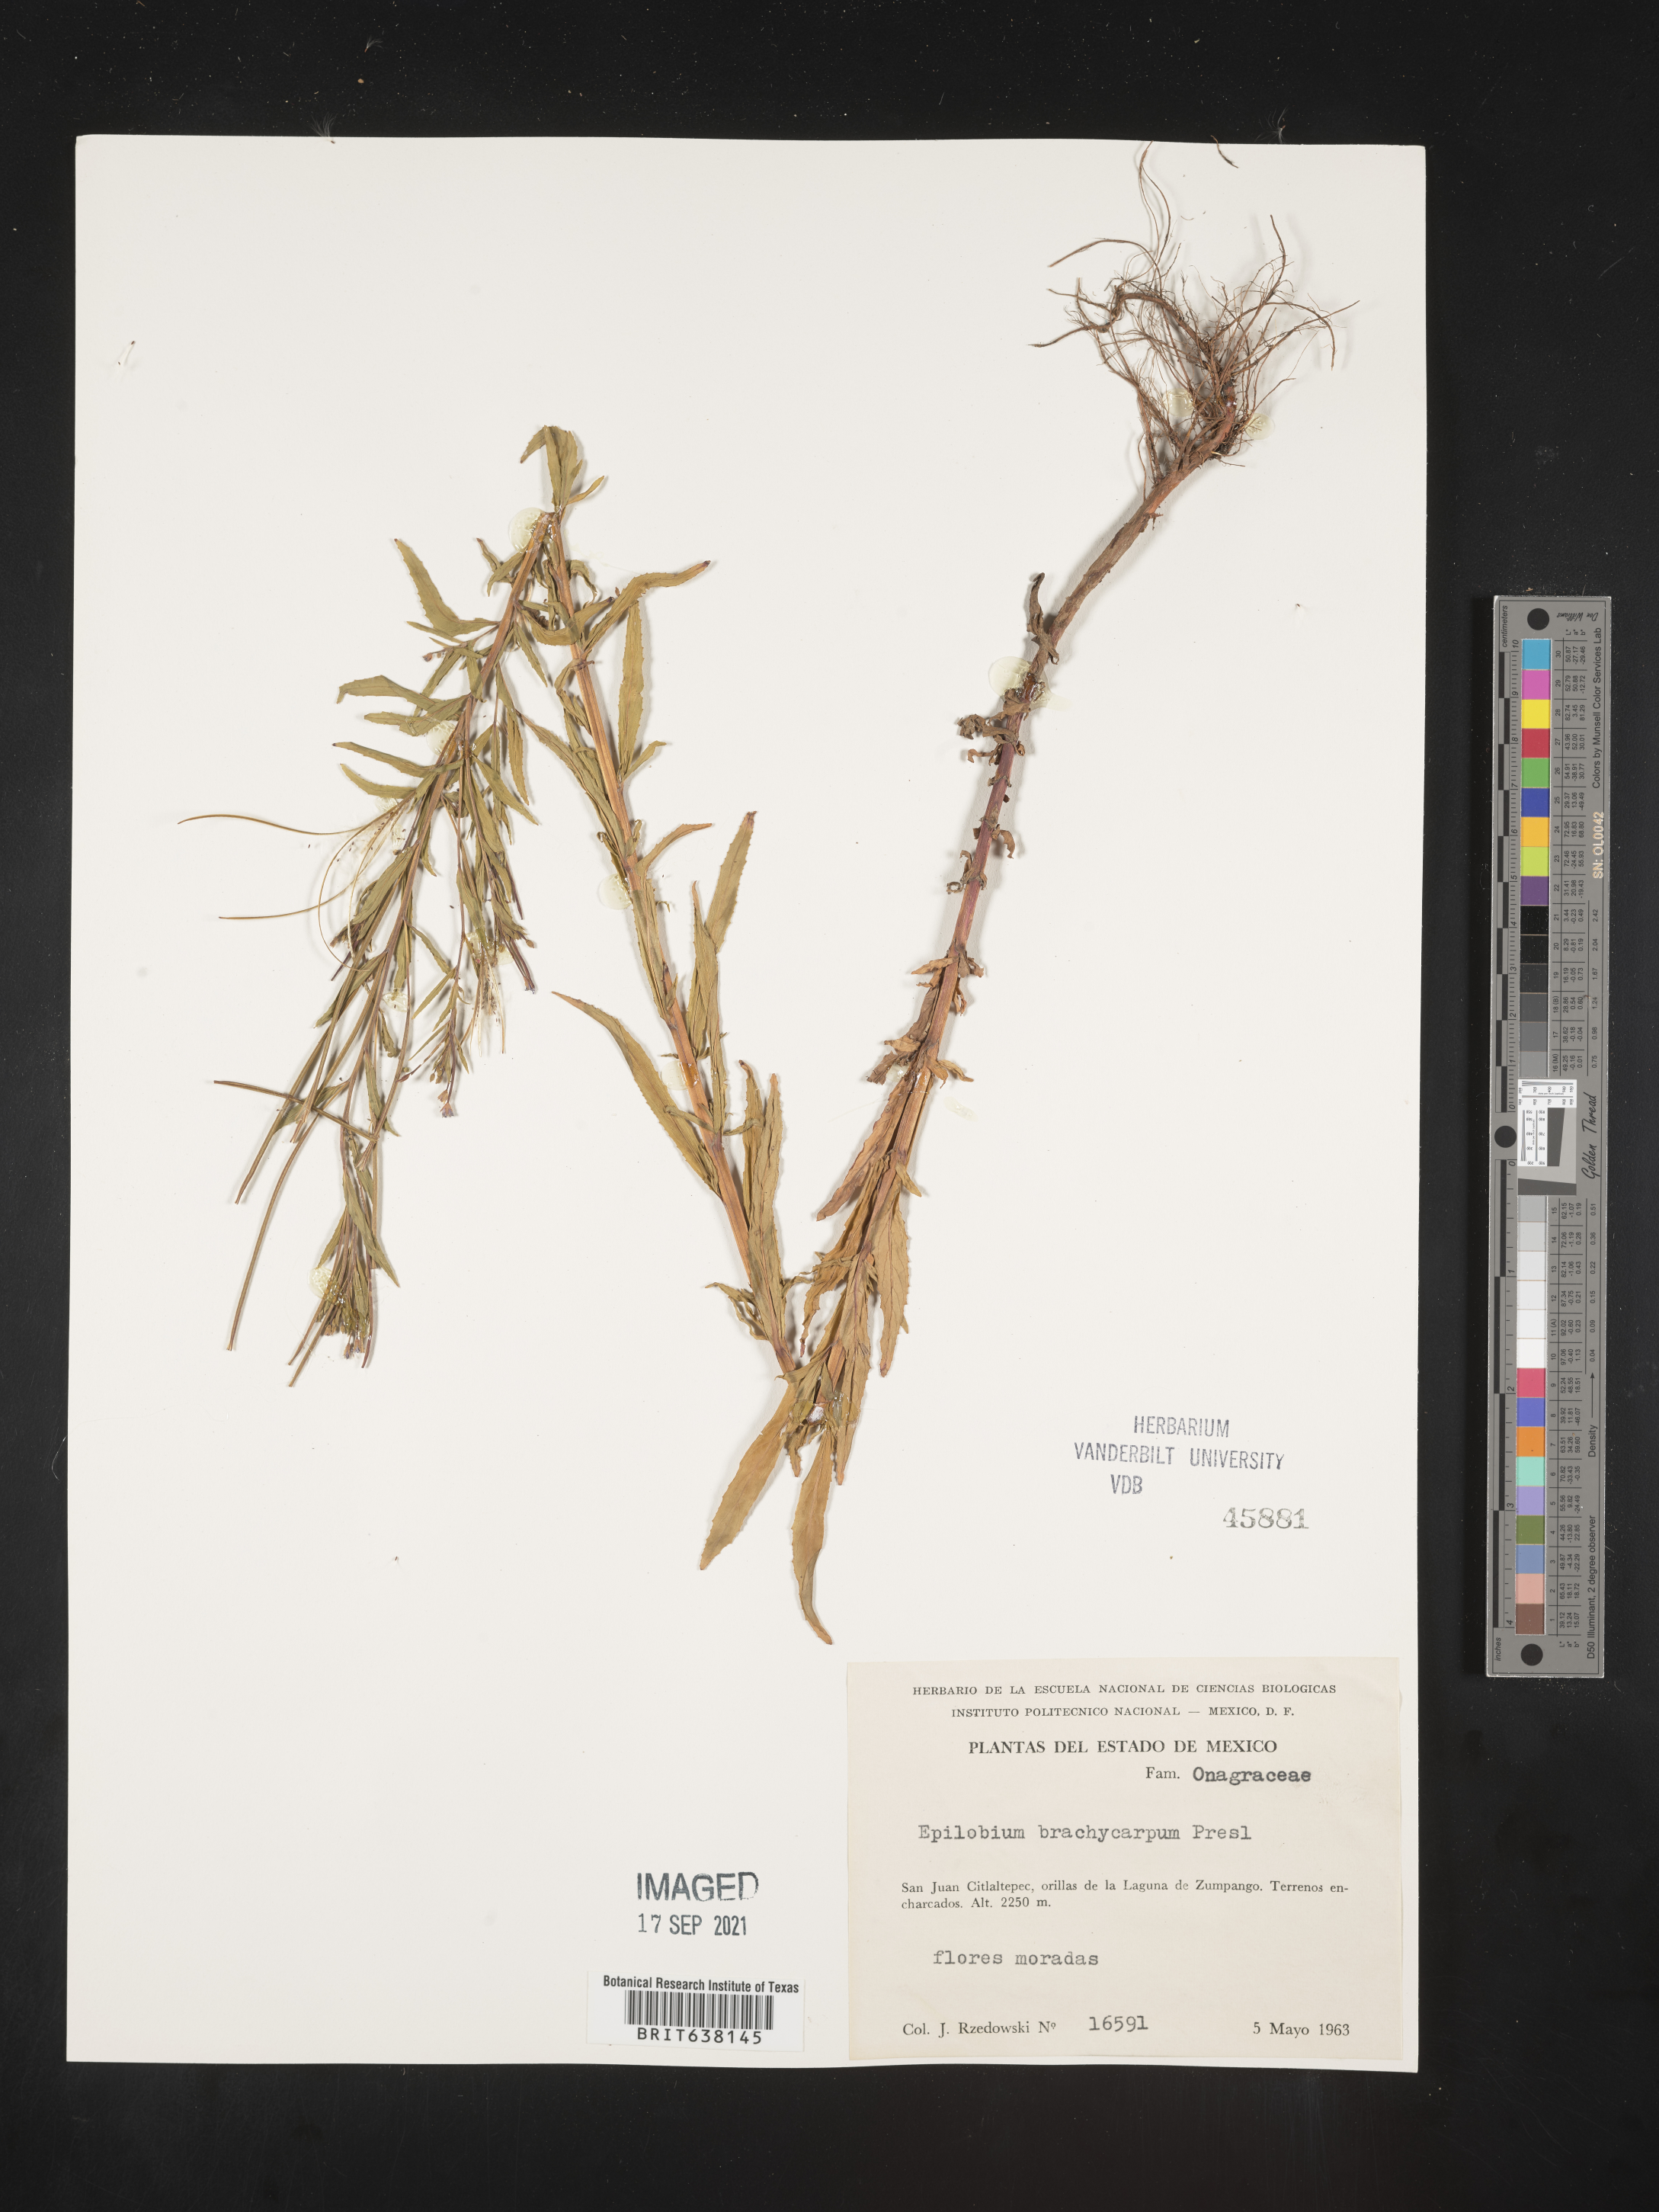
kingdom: Plantae
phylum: Tracheophyta
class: Magnoliopsida
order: Myrtales
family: Onagraceae
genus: Epilobium
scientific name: Epilobium
